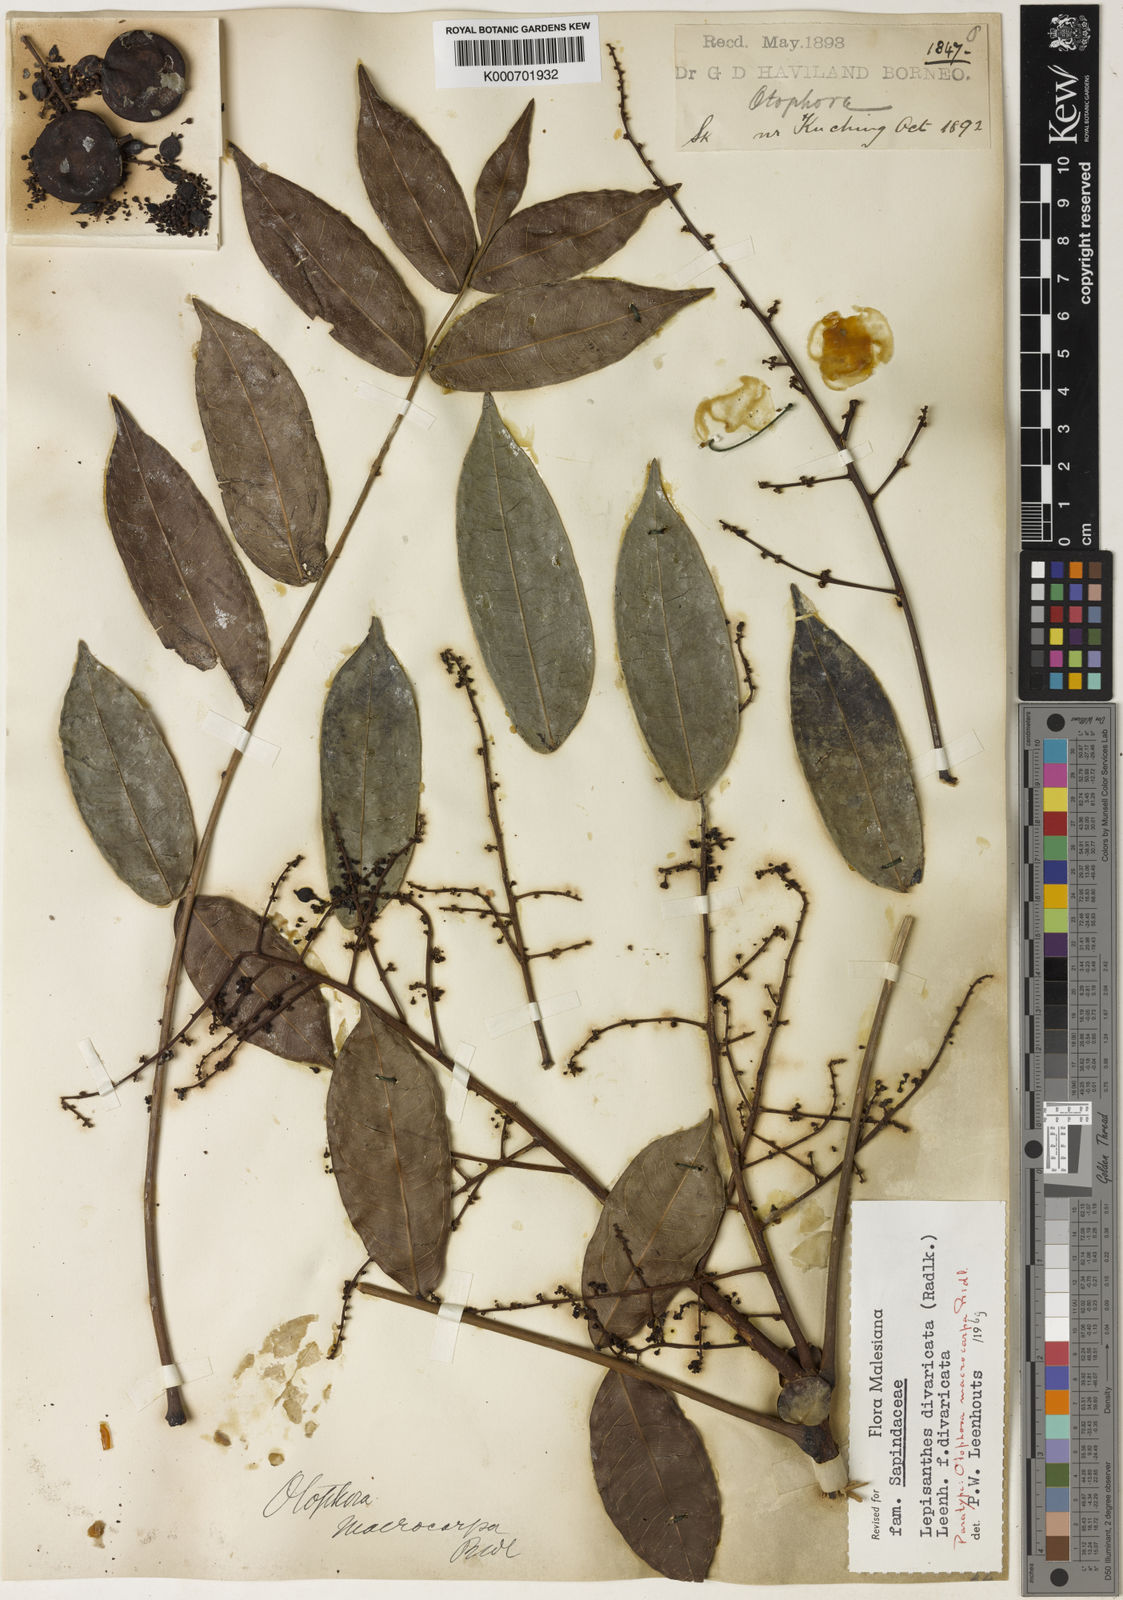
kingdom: Plantae
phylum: Tracheophyta
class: Magnoliopsida
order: Sapindales
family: Sapindaceae
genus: Lepisanthes
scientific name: Lepisanthes divaricata
